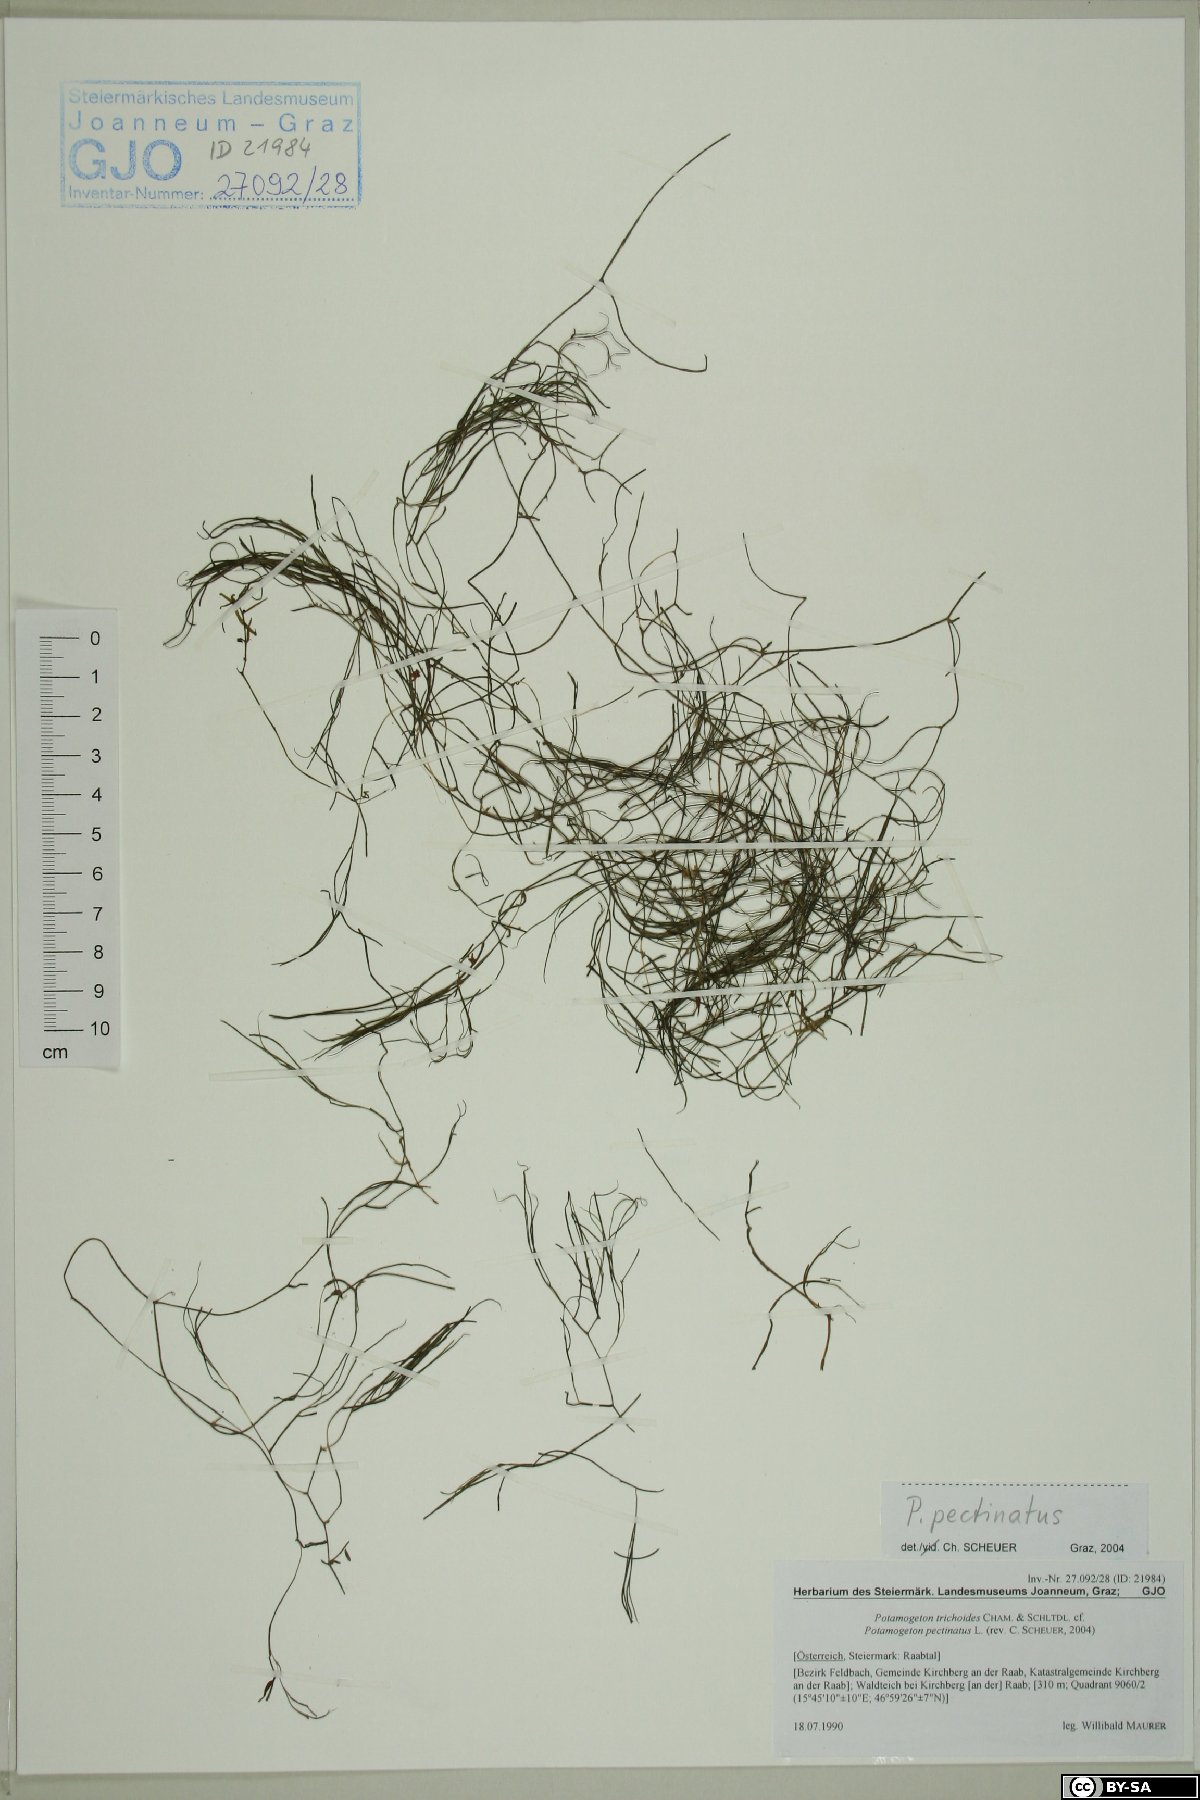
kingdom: Plantae
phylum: Tracheophyta
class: Liliopsida
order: Alismatales
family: Potamogetonaceae
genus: Stuckenia
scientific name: Stuckenia pectinata
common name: Sago pondweed
